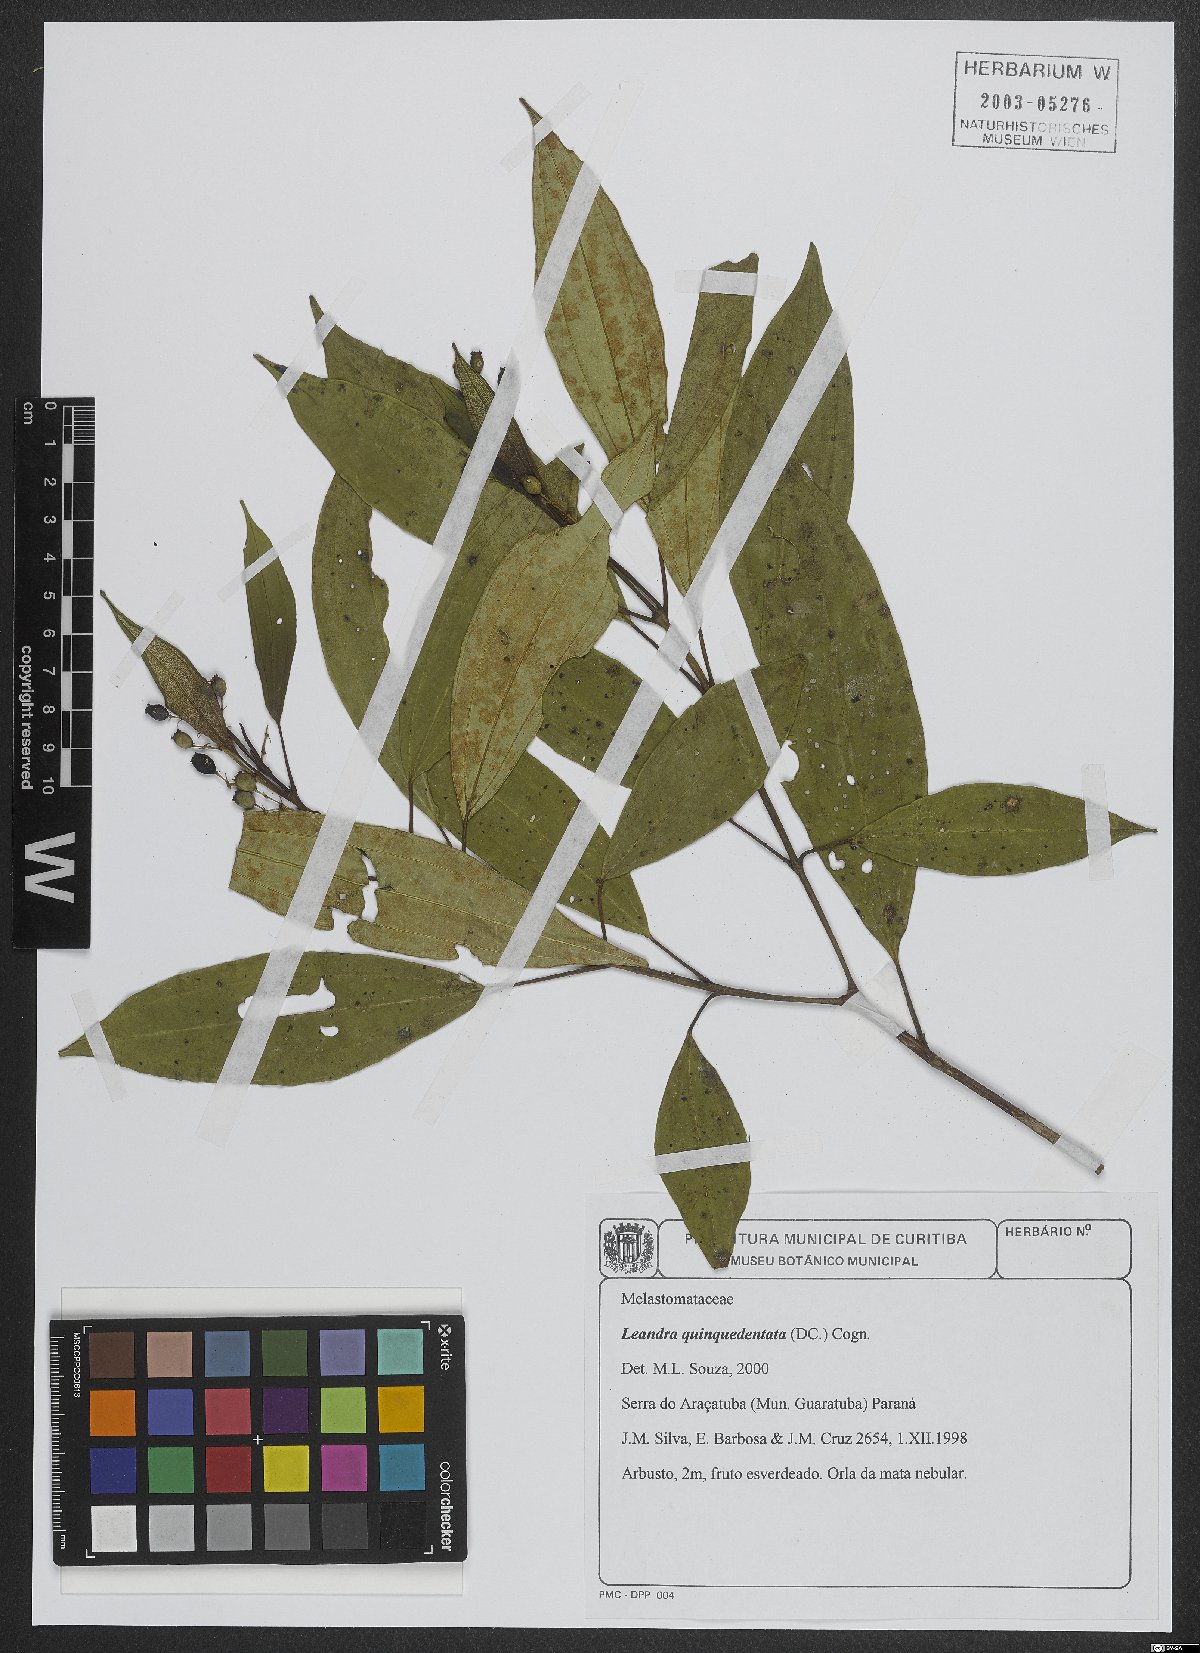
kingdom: Plantae
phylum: Tracheophyta
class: Magnoliopsida
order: Myrtales
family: Melastomataceae
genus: Miconia
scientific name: Miconia quinquedentata
